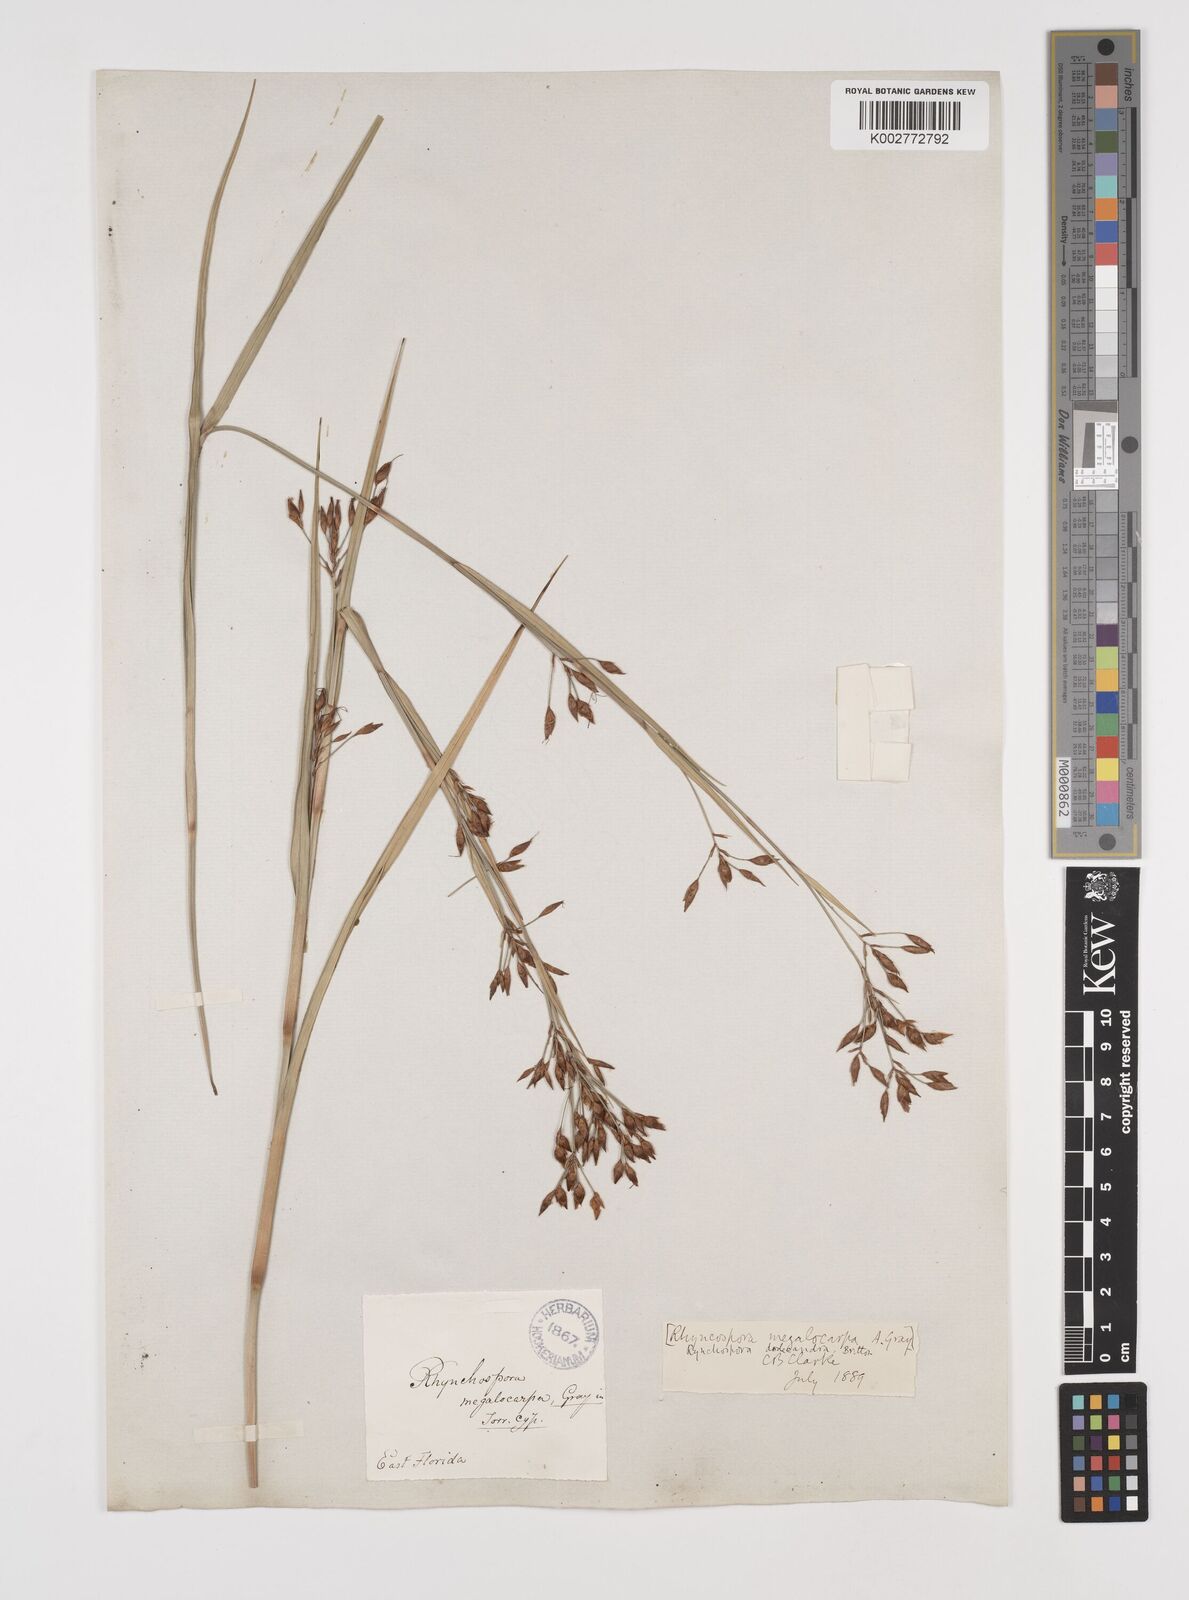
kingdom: Plantae
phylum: Tracheophyta
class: Liliopsida
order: Poales
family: Cyperaceae
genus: Rhynchospora
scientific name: Rhynchospora megalocarpa
